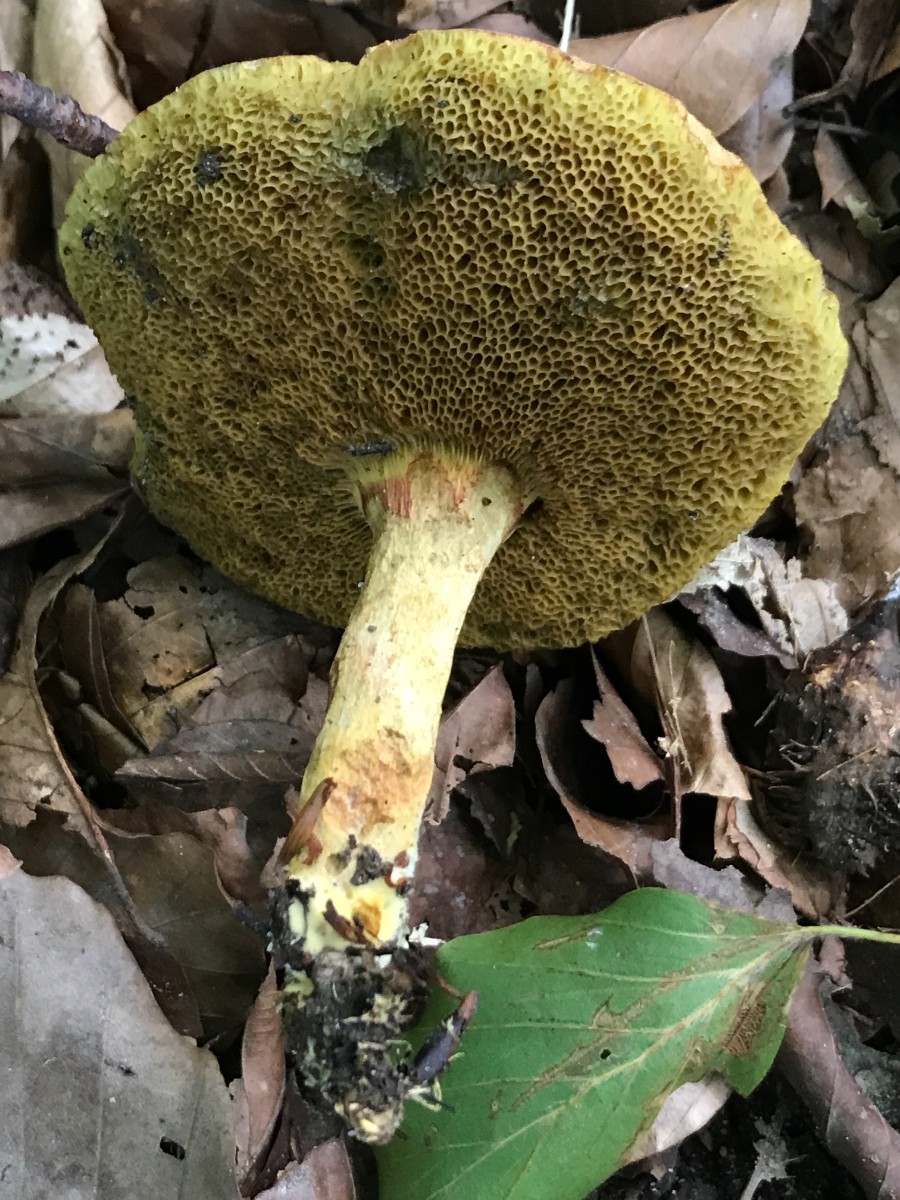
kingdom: Fungi
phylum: Basidiomycota
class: Agaricomycetes
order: Boletales
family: Boletaceae
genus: Xerocomellus
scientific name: Xerocomellus porosporus
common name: hvidsprukken rørhat
